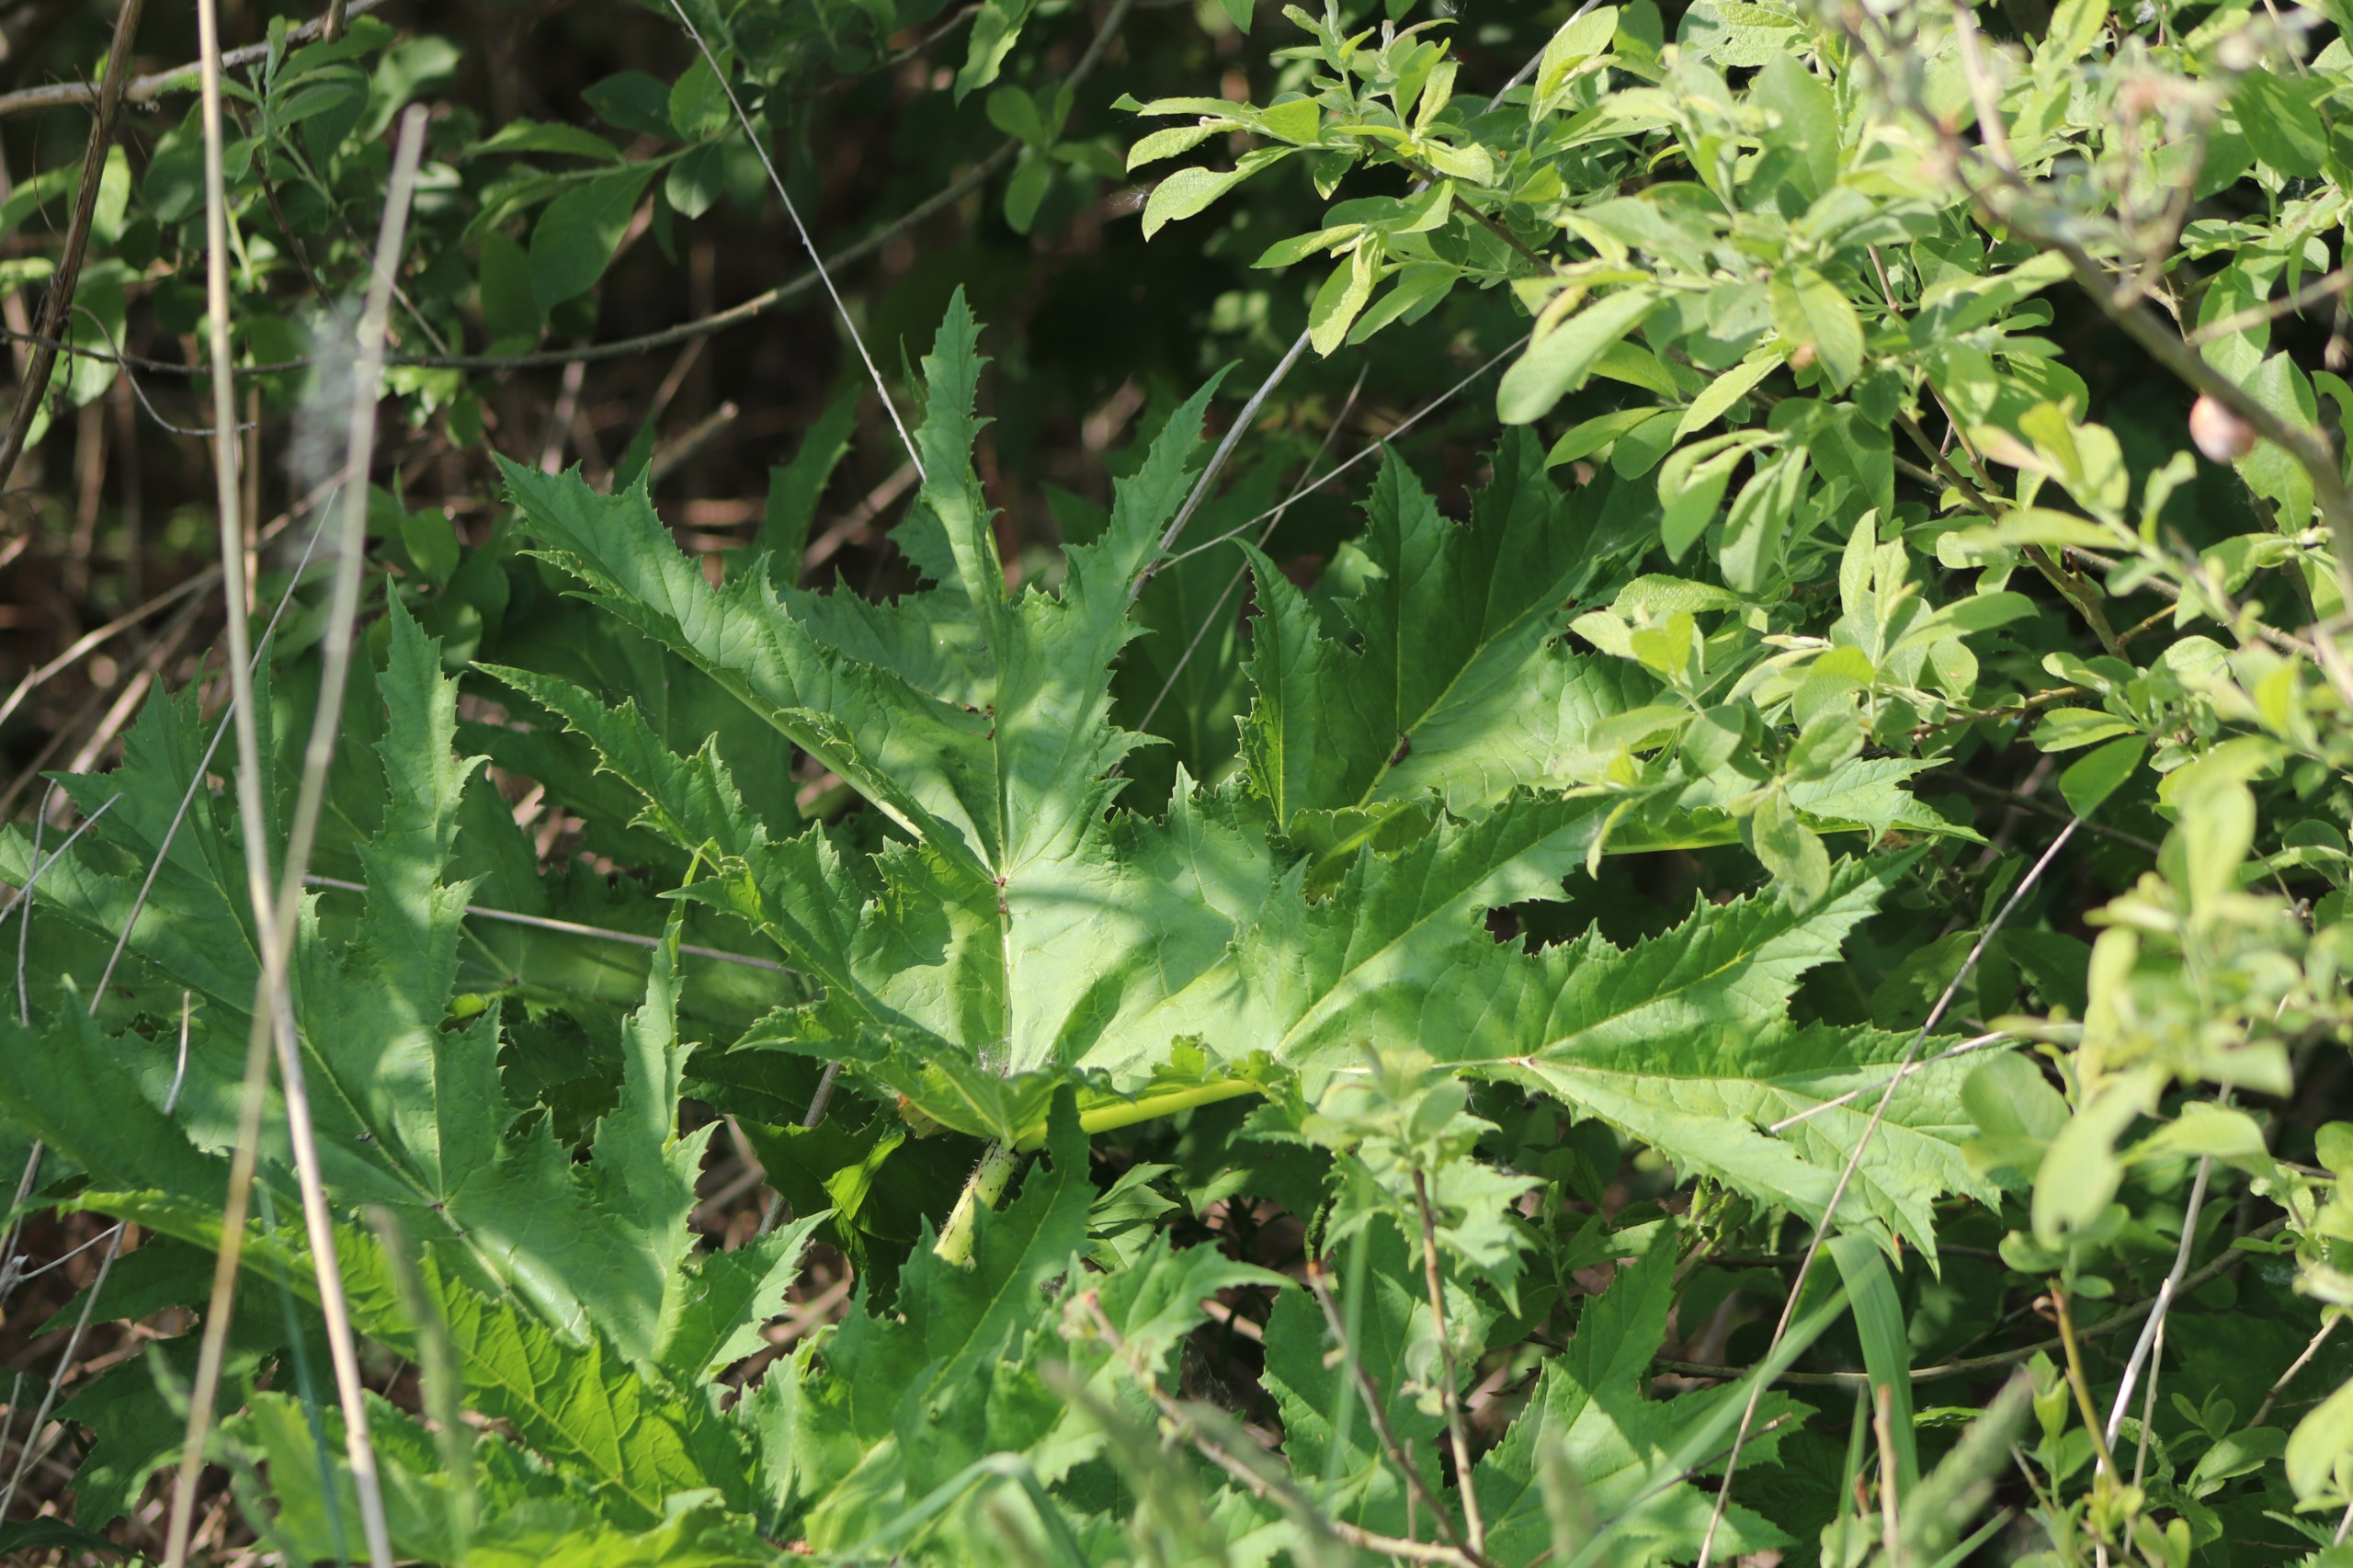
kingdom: Plantae
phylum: Tracheophyta
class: Magnoliopsida
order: Apiales
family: Apiaceae
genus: Heracleum
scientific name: Heracleum mantegazzianum
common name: Kæmpe-bjørneklo
